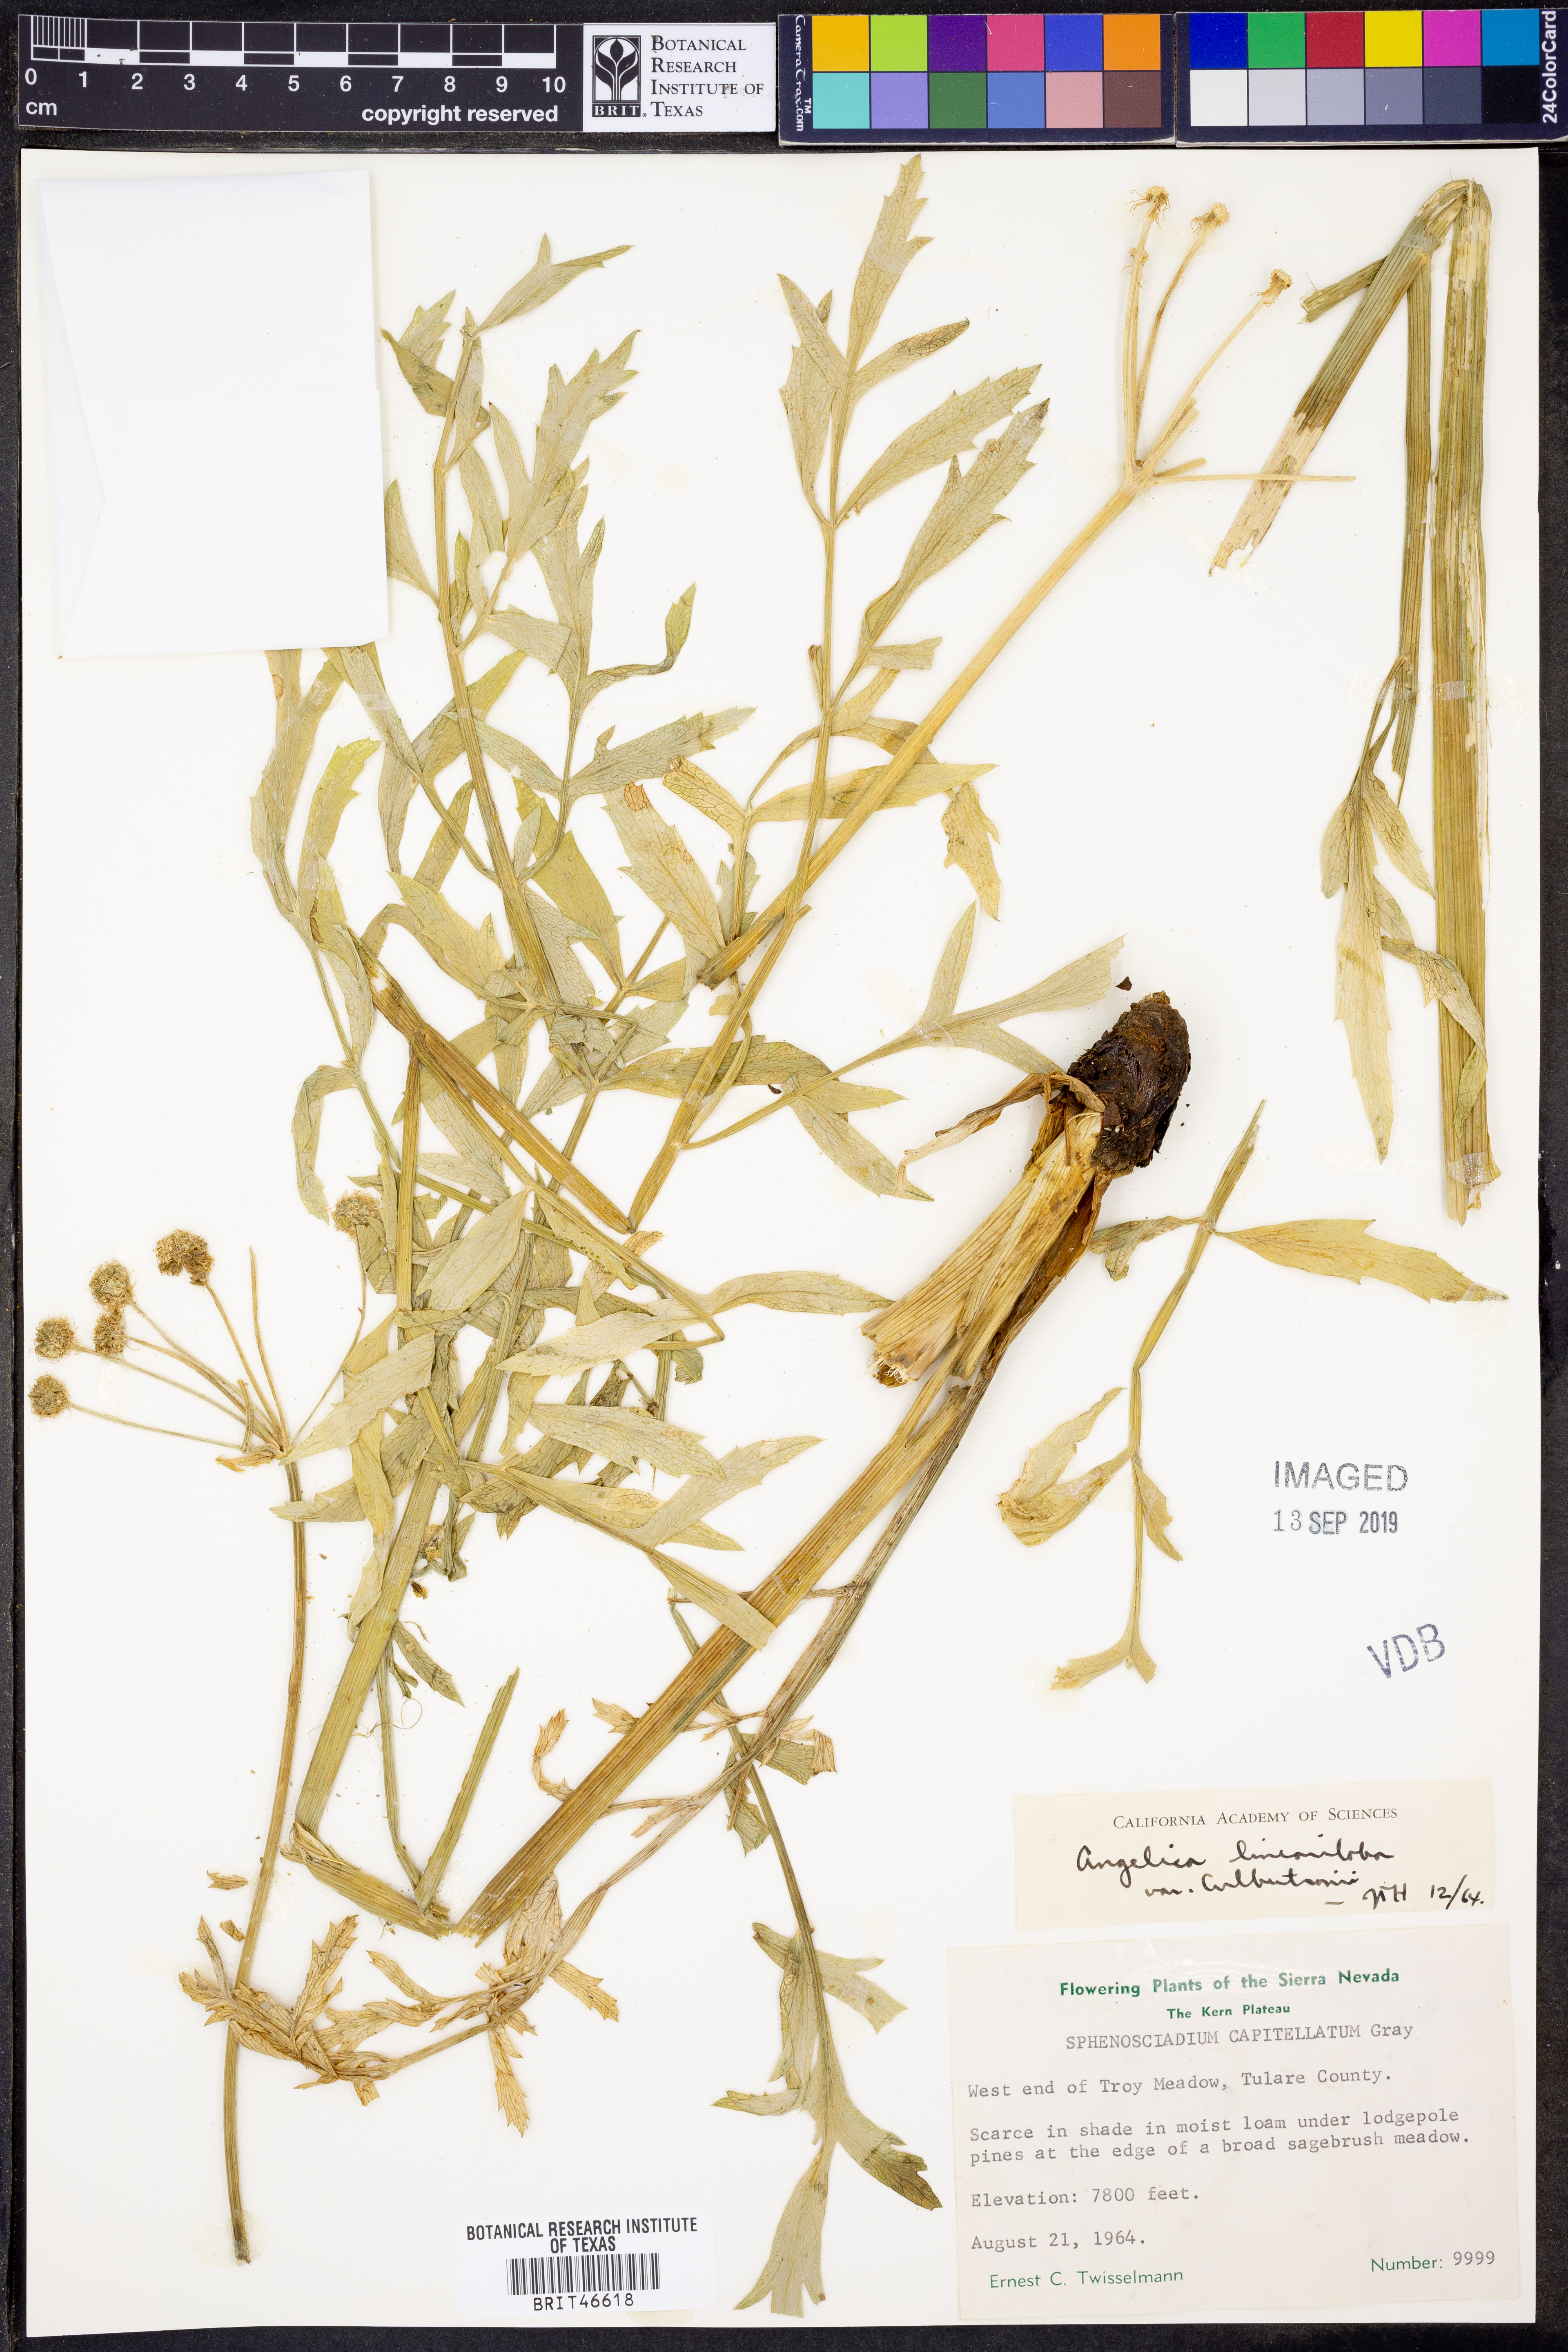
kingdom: Plantae
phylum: Tracheophyta
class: Magnoliopsida
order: Apiales
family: Apiaceae
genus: Angelica
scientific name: Angelica lineariloba
